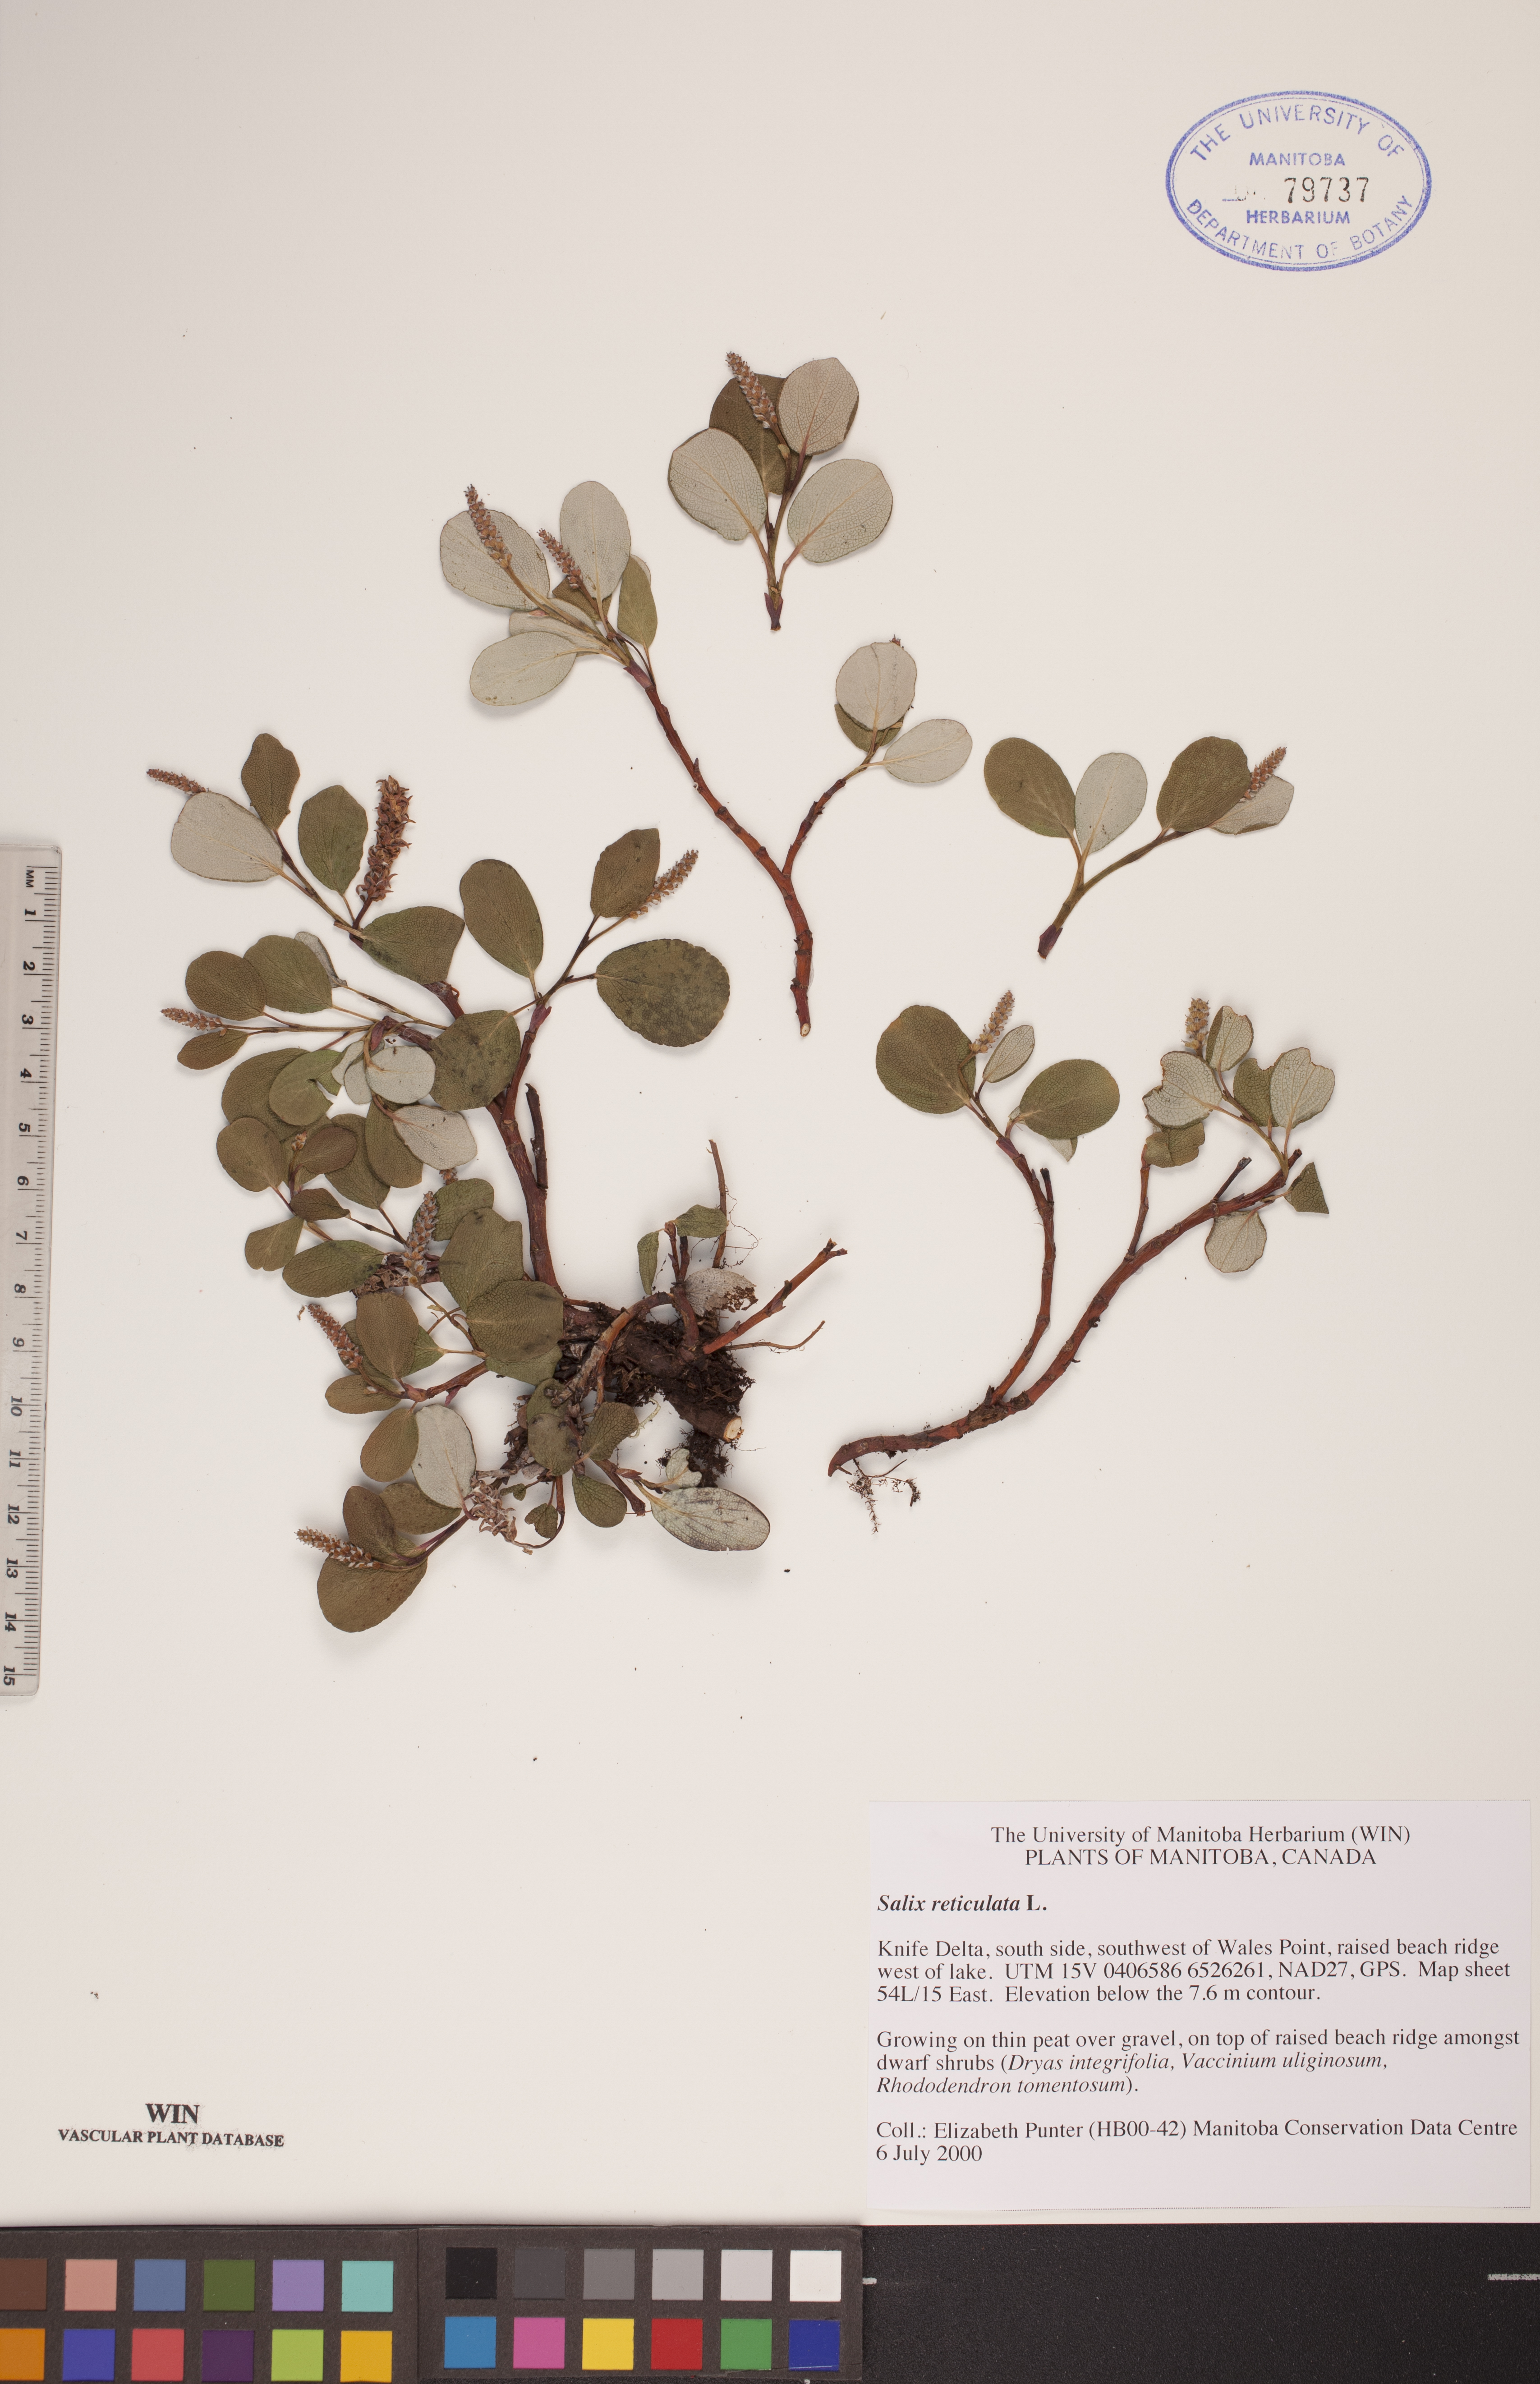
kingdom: Plantae
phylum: Tracheophyta
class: Magnoliopsida
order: Malpighiales
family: Salicaceae
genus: Salix
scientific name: Salix reticulata
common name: Net-leaved willow
